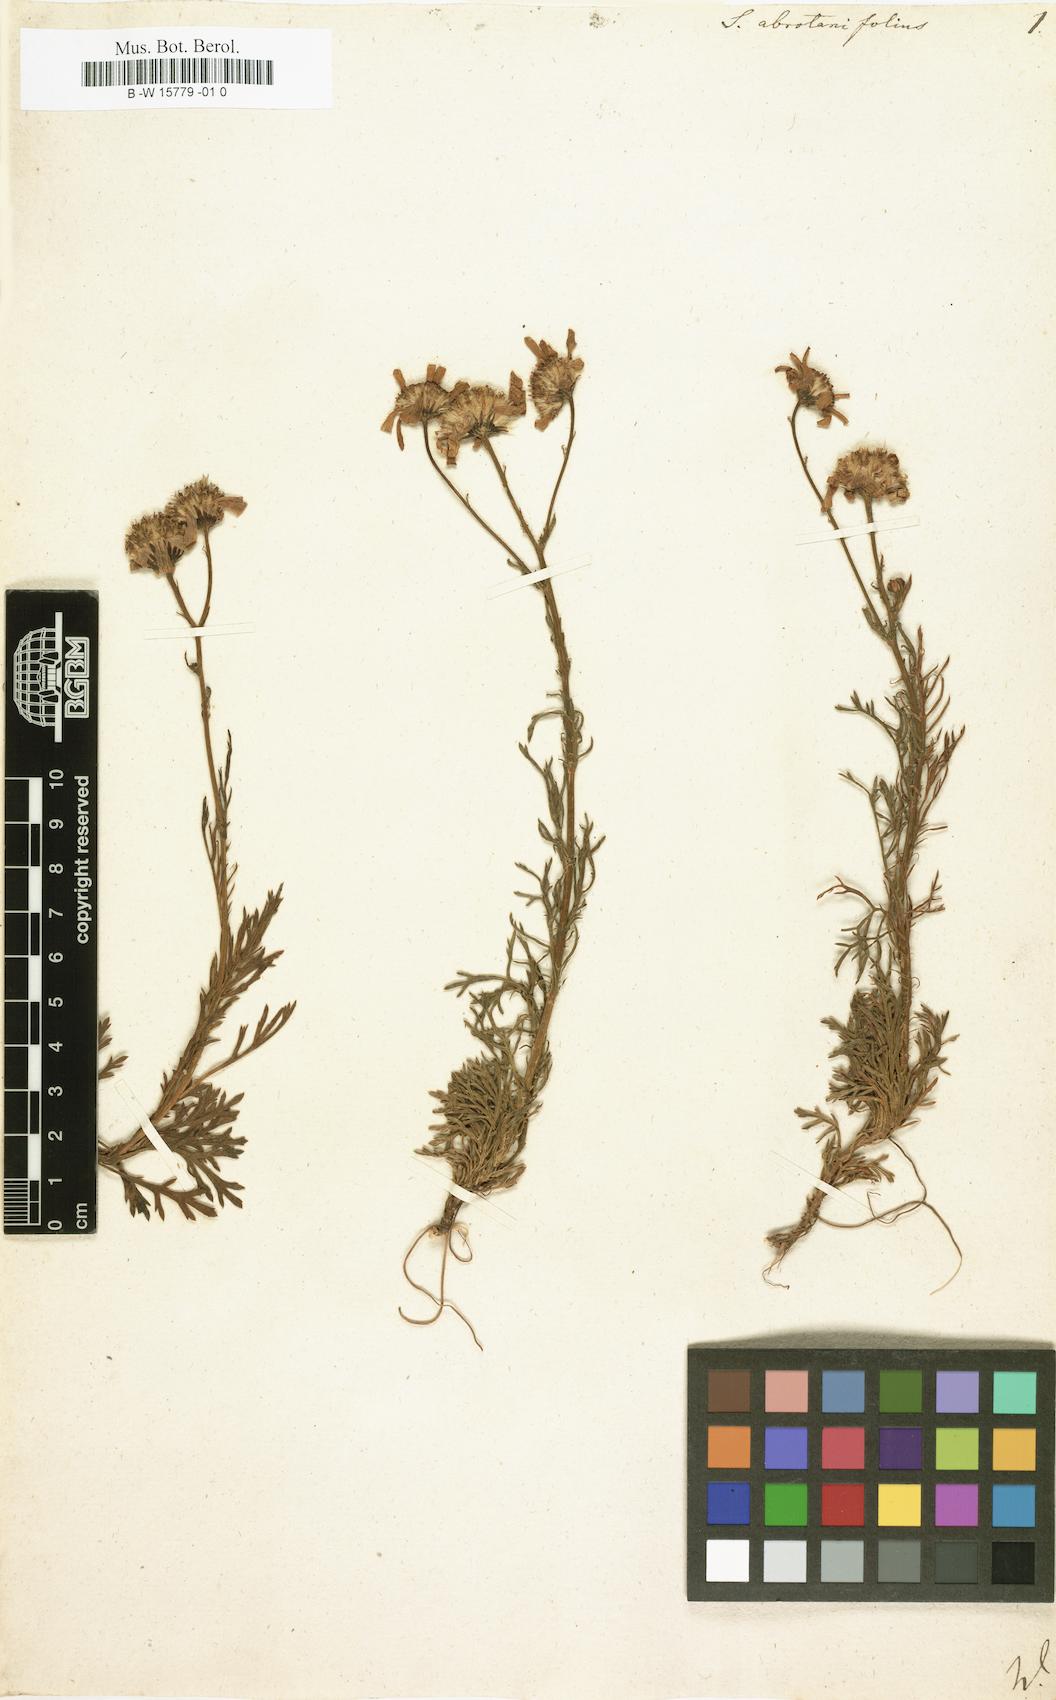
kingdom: Plantae
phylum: Tracheophyta
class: Magnoliopsida
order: Asterales
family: Asteraceae
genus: Jacobaea
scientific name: Jacobaea abrotanifolia
